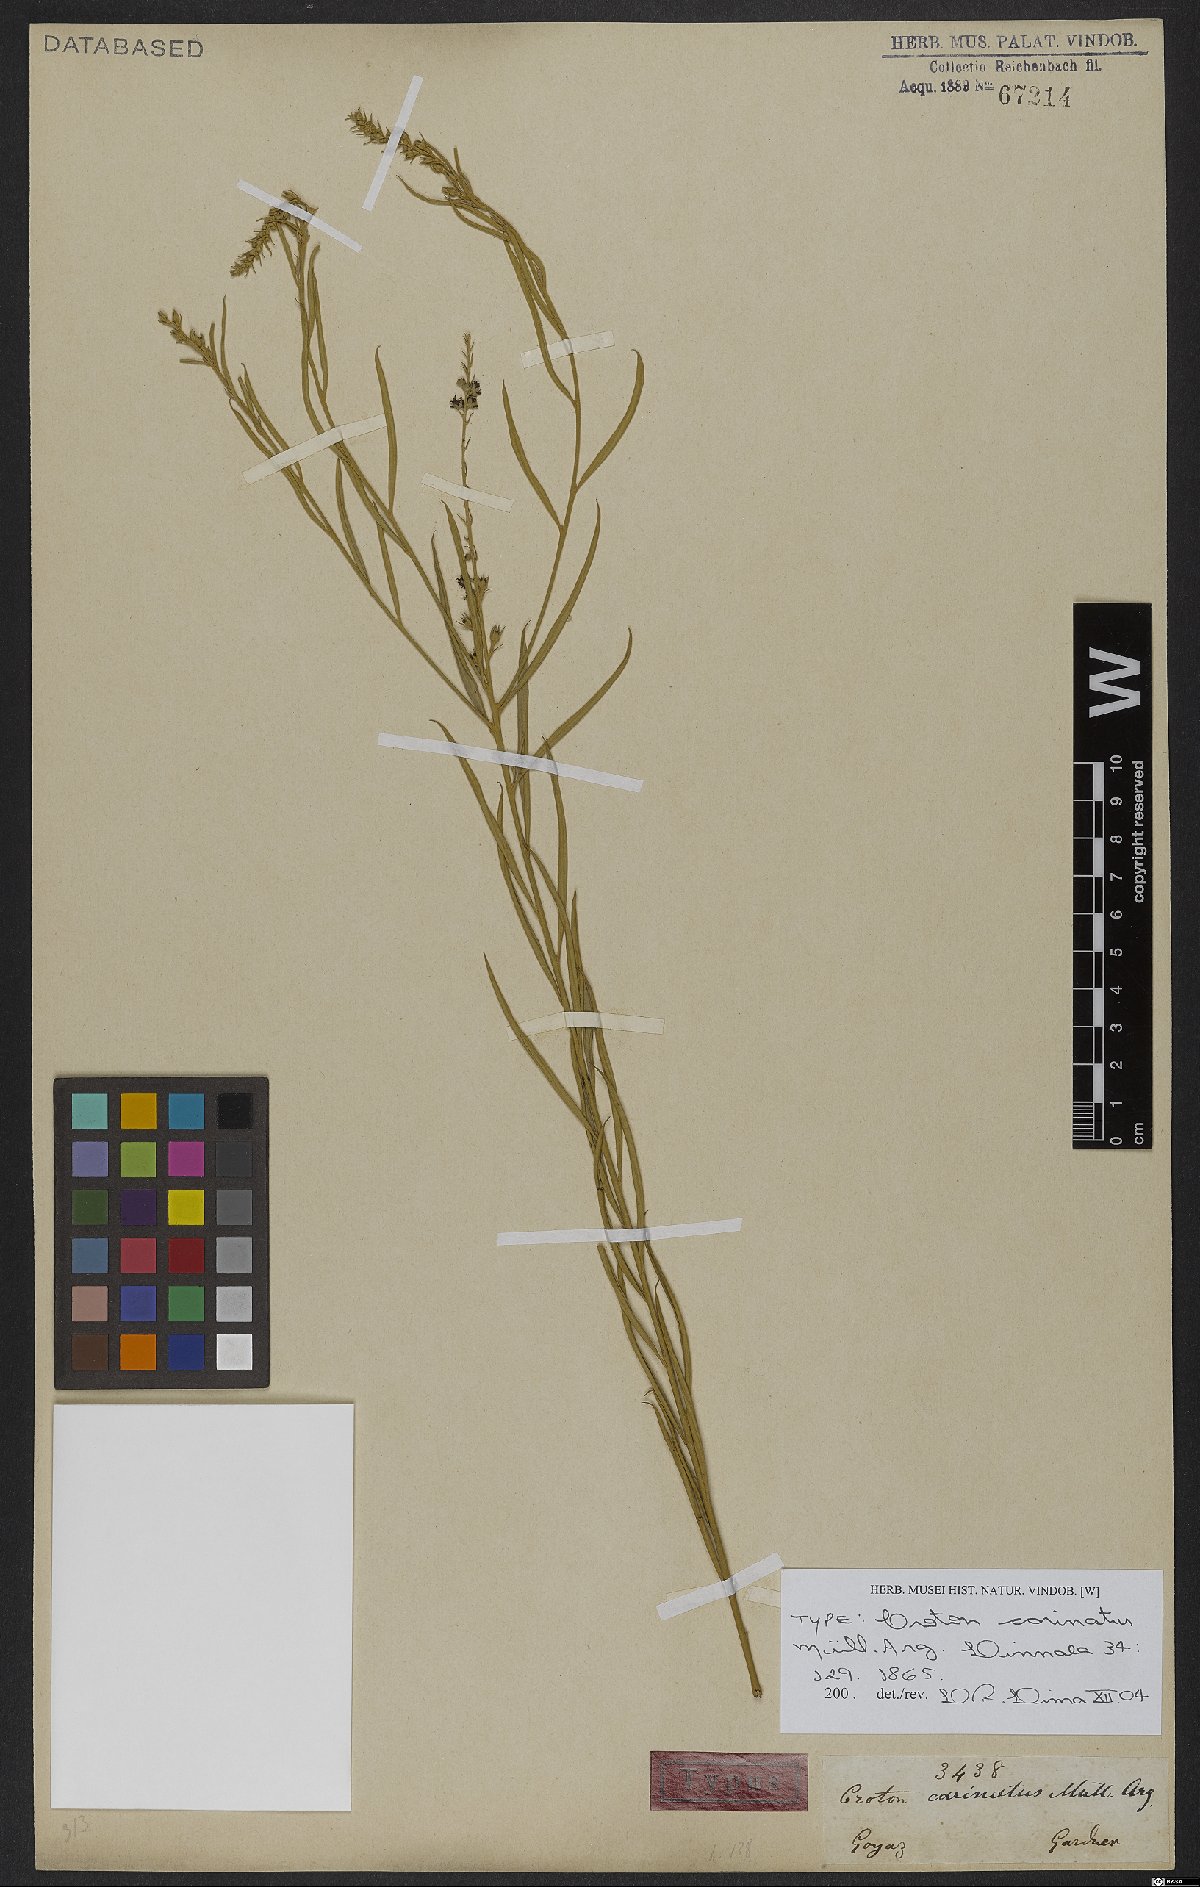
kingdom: Plantae
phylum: Tracheophyta
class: Magnoliopsida
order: Malpighiales
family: Euphorbiaceae
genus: Croton
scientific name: Croton carinatus
